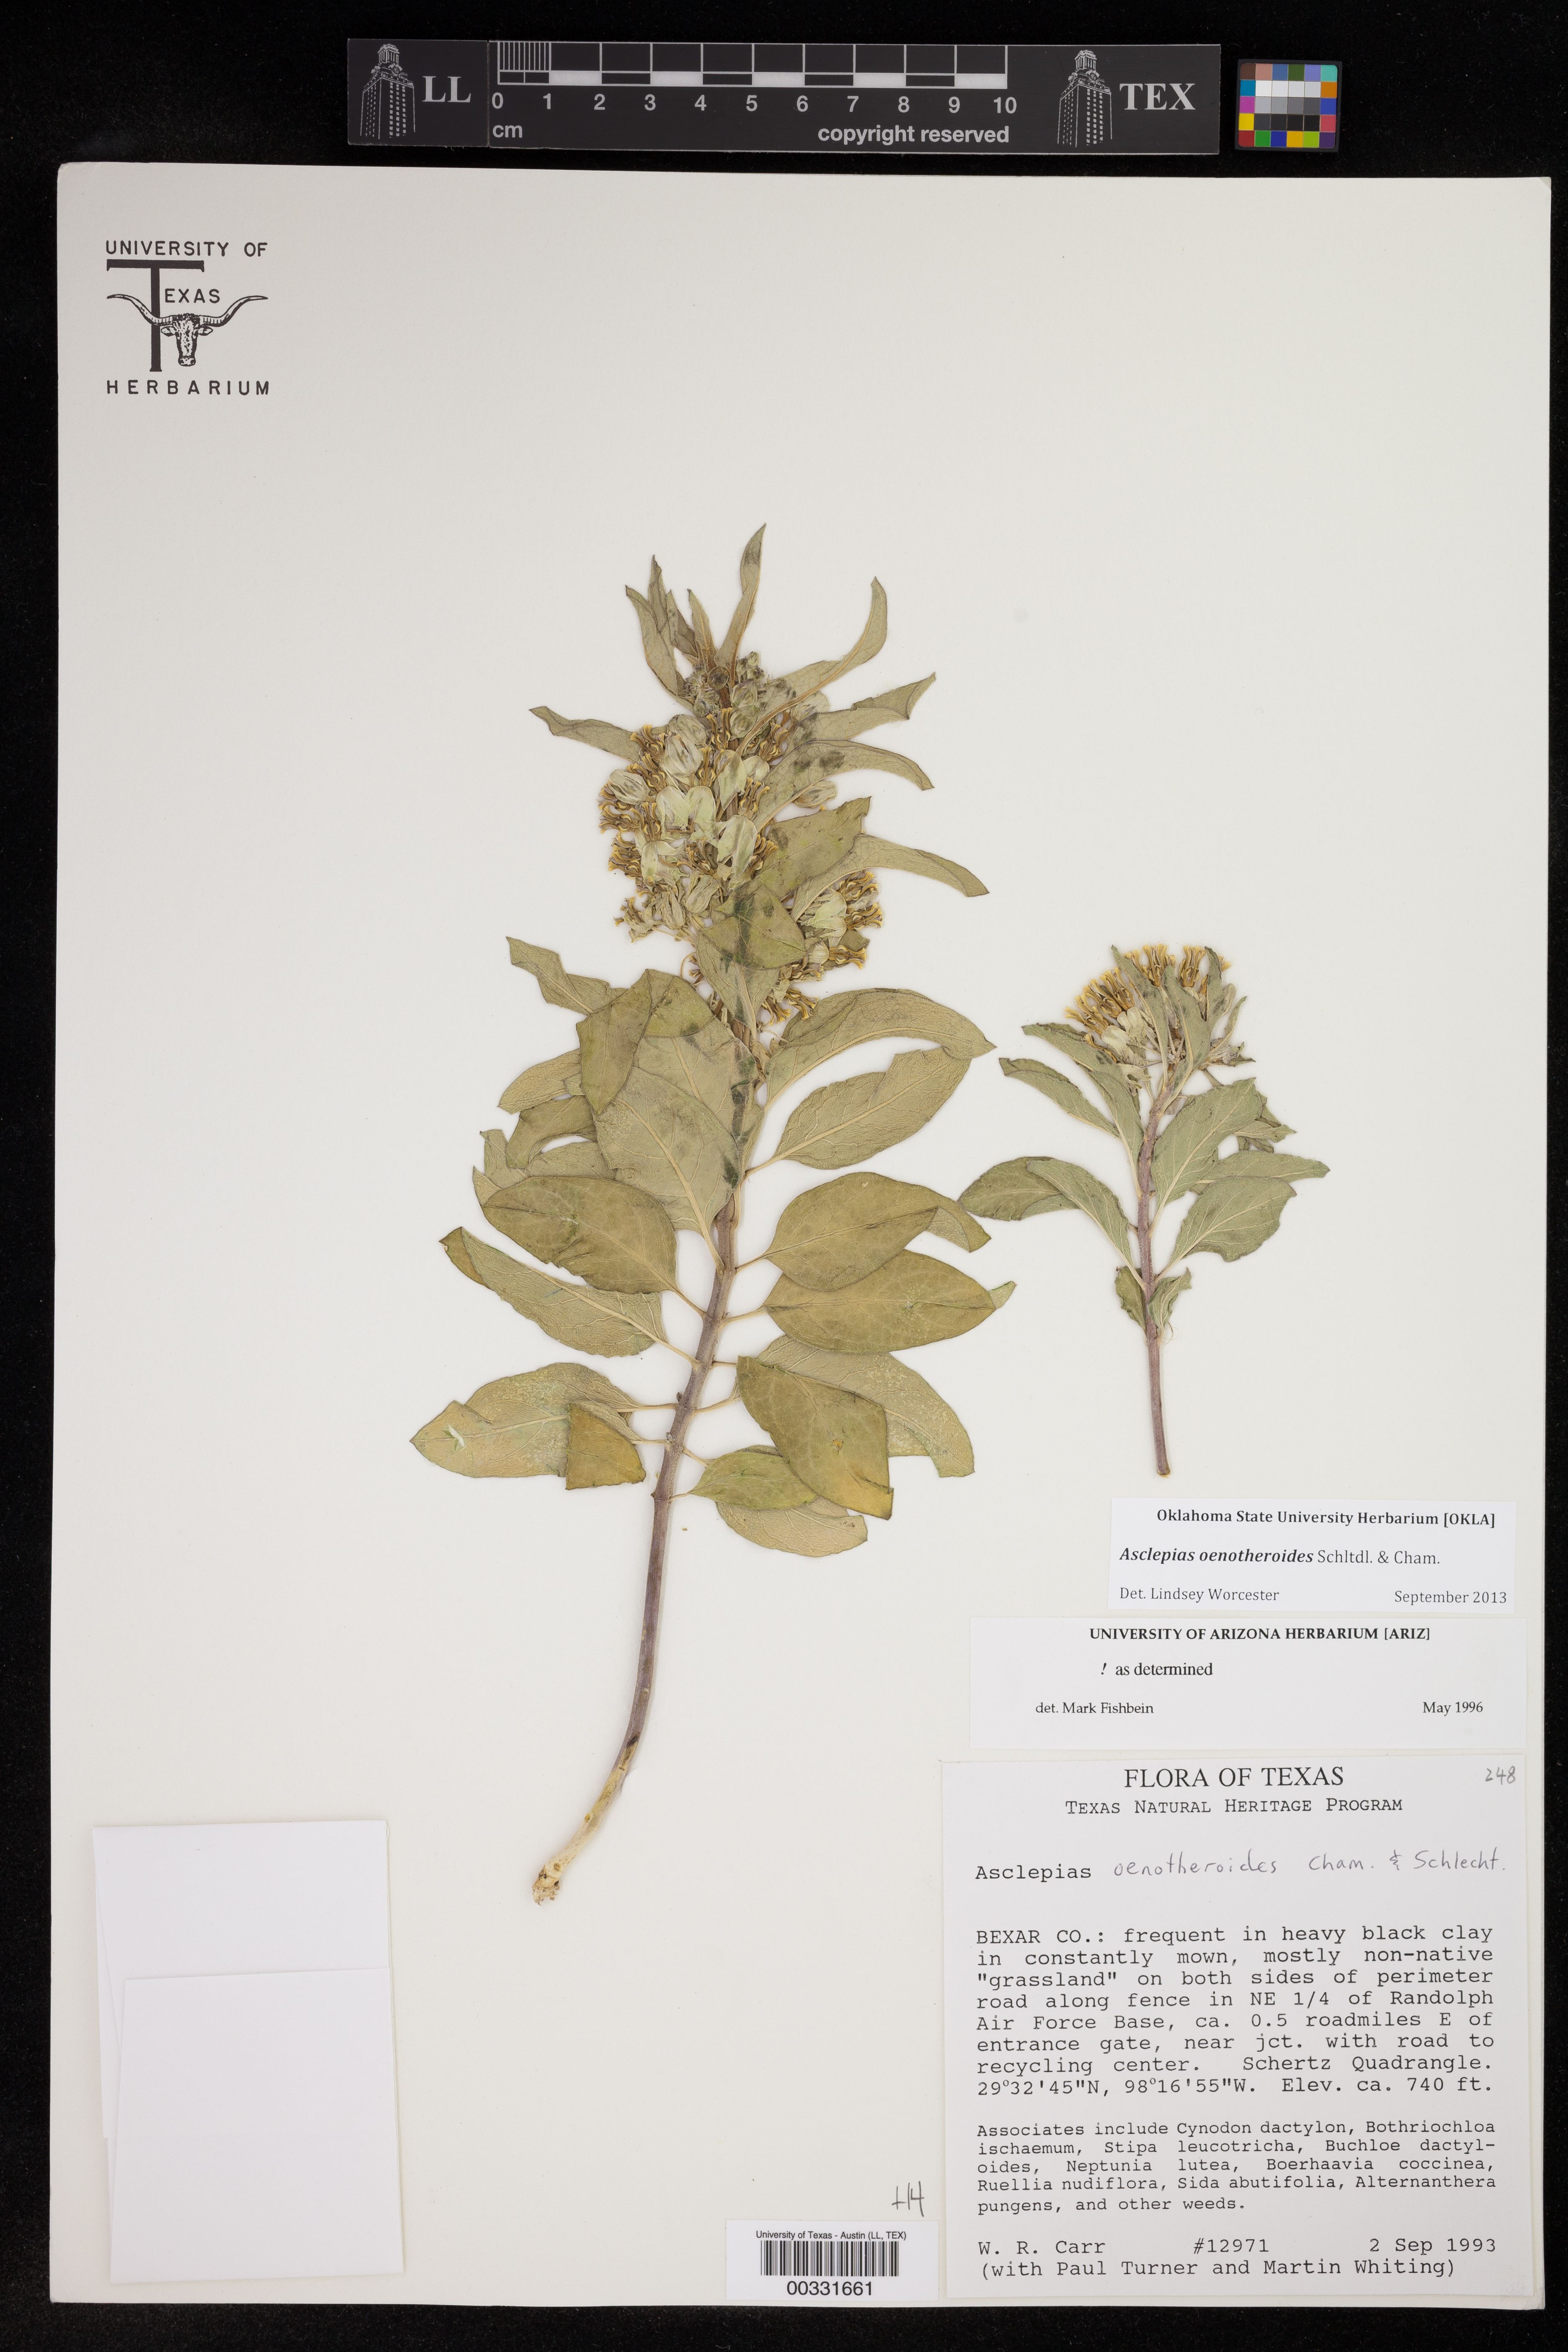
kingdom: Plantae
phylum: Tracheophyta
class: Magnoliopsida
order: Gentianales
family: Apocynaceae
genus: Asclepias
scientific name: Asclepias oenotheroides
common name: Zizotes milkweed
